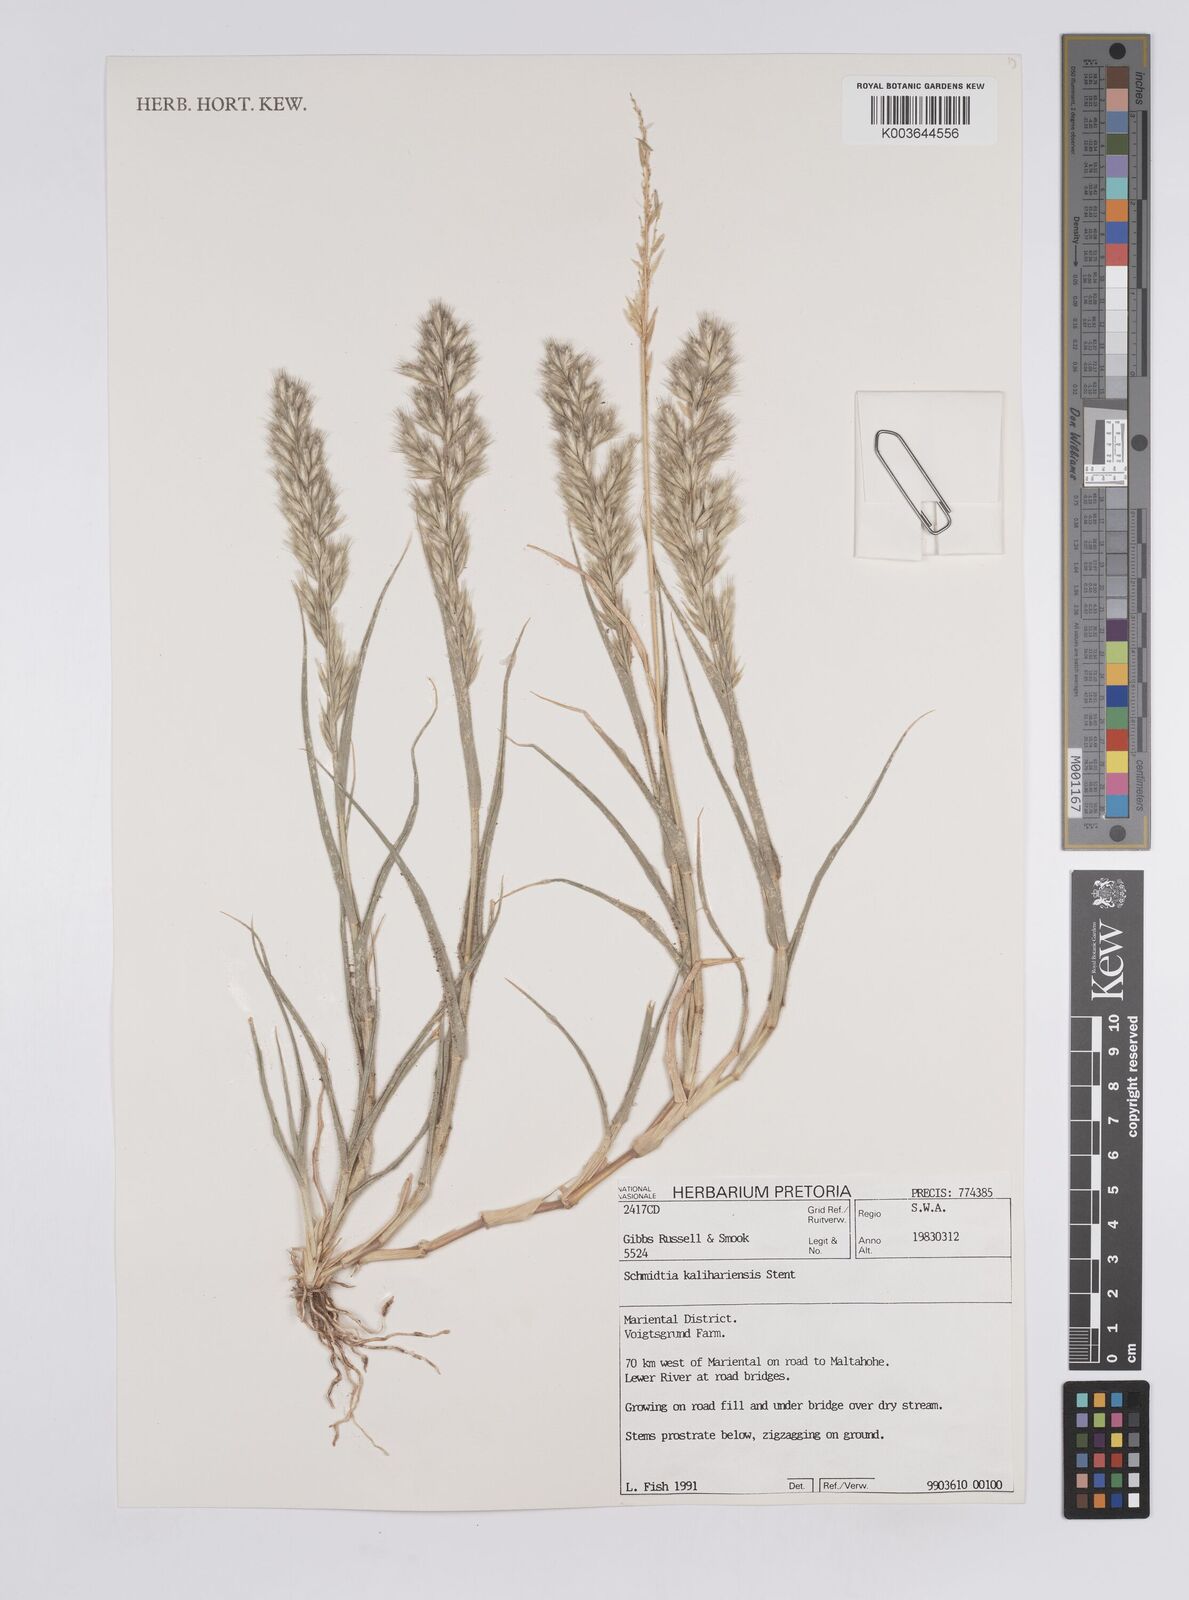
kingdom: Plantae
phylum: Tracheophyta
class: Liliopsida
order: Poales
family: Poaceae
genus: Schmidtia
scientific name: Schmidtia kalahariensis
